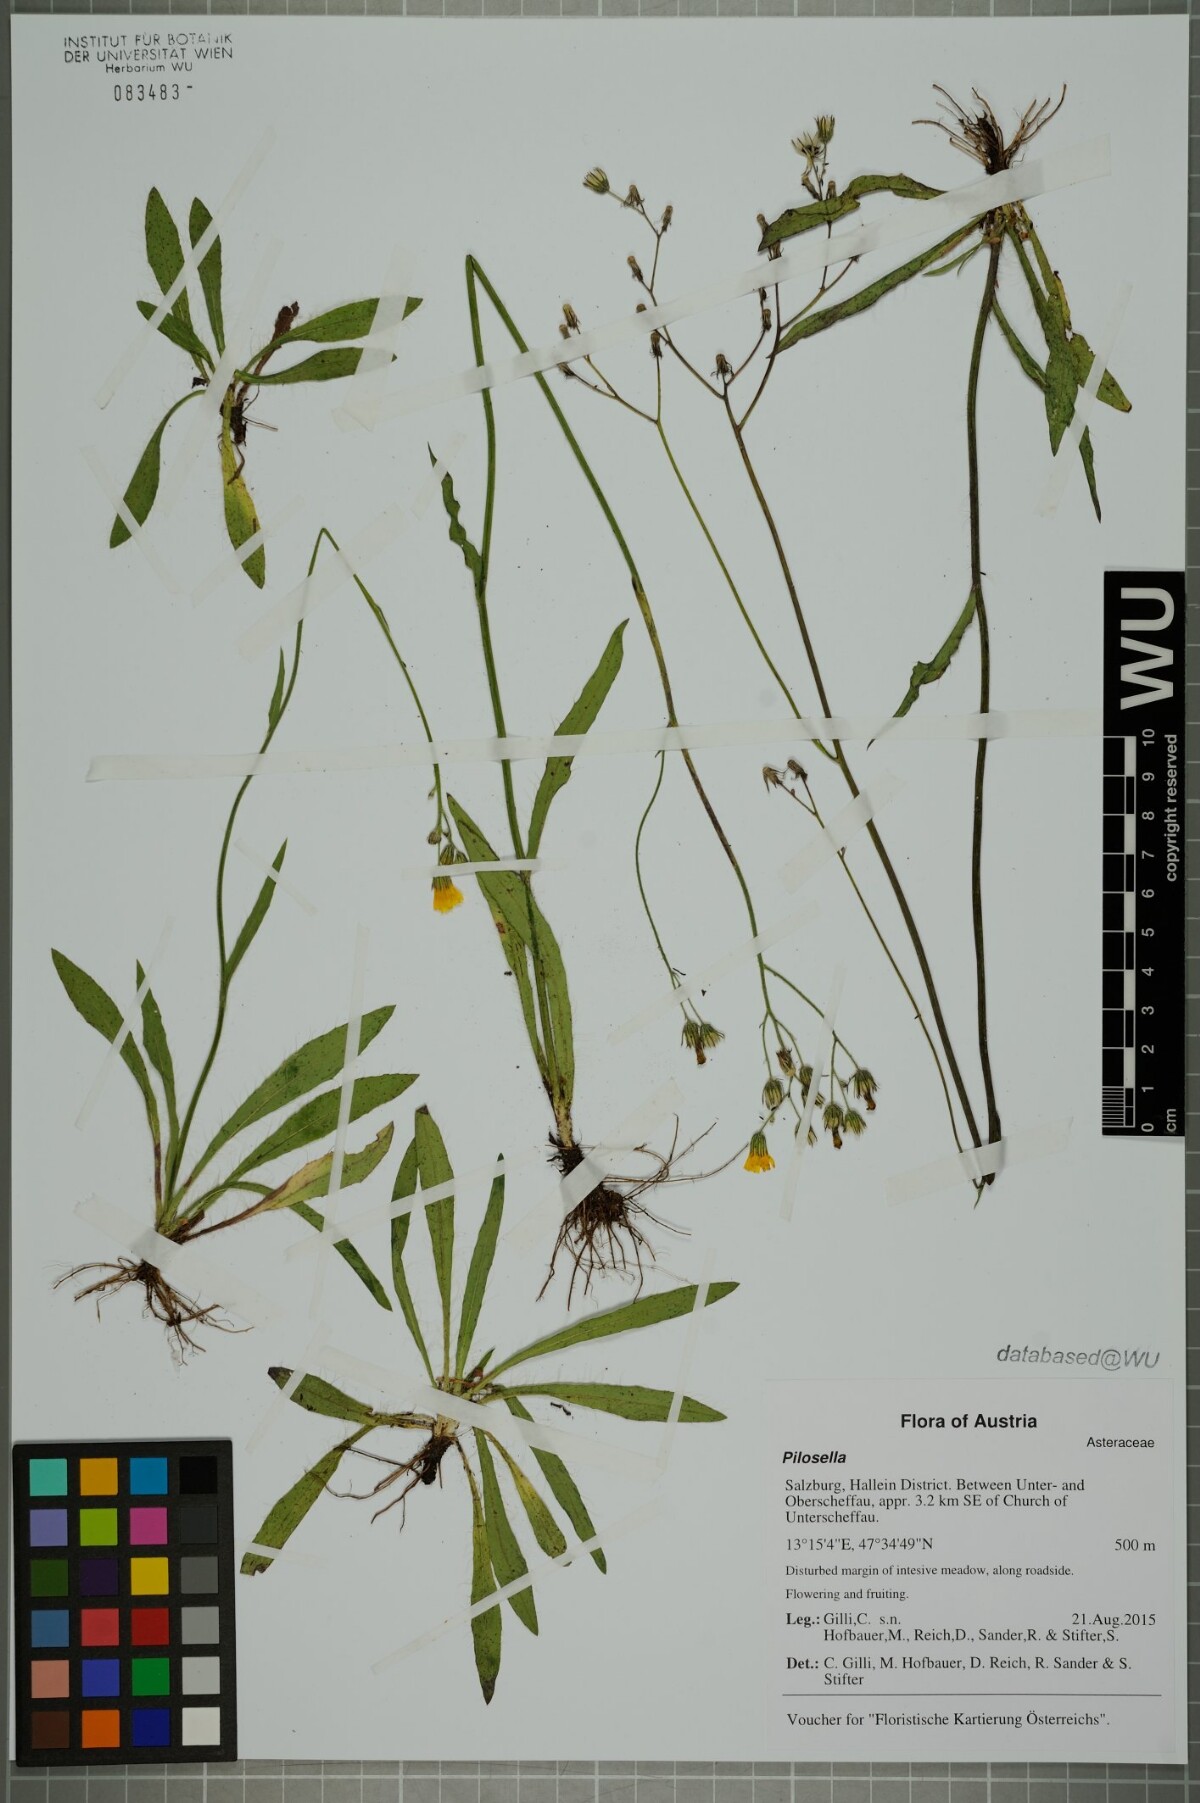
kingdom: Plantae
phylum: Tracheophyta
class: Magnoliopsida
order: Asterales
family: Asteraceae
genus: Pilosella
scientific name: Pilosella
